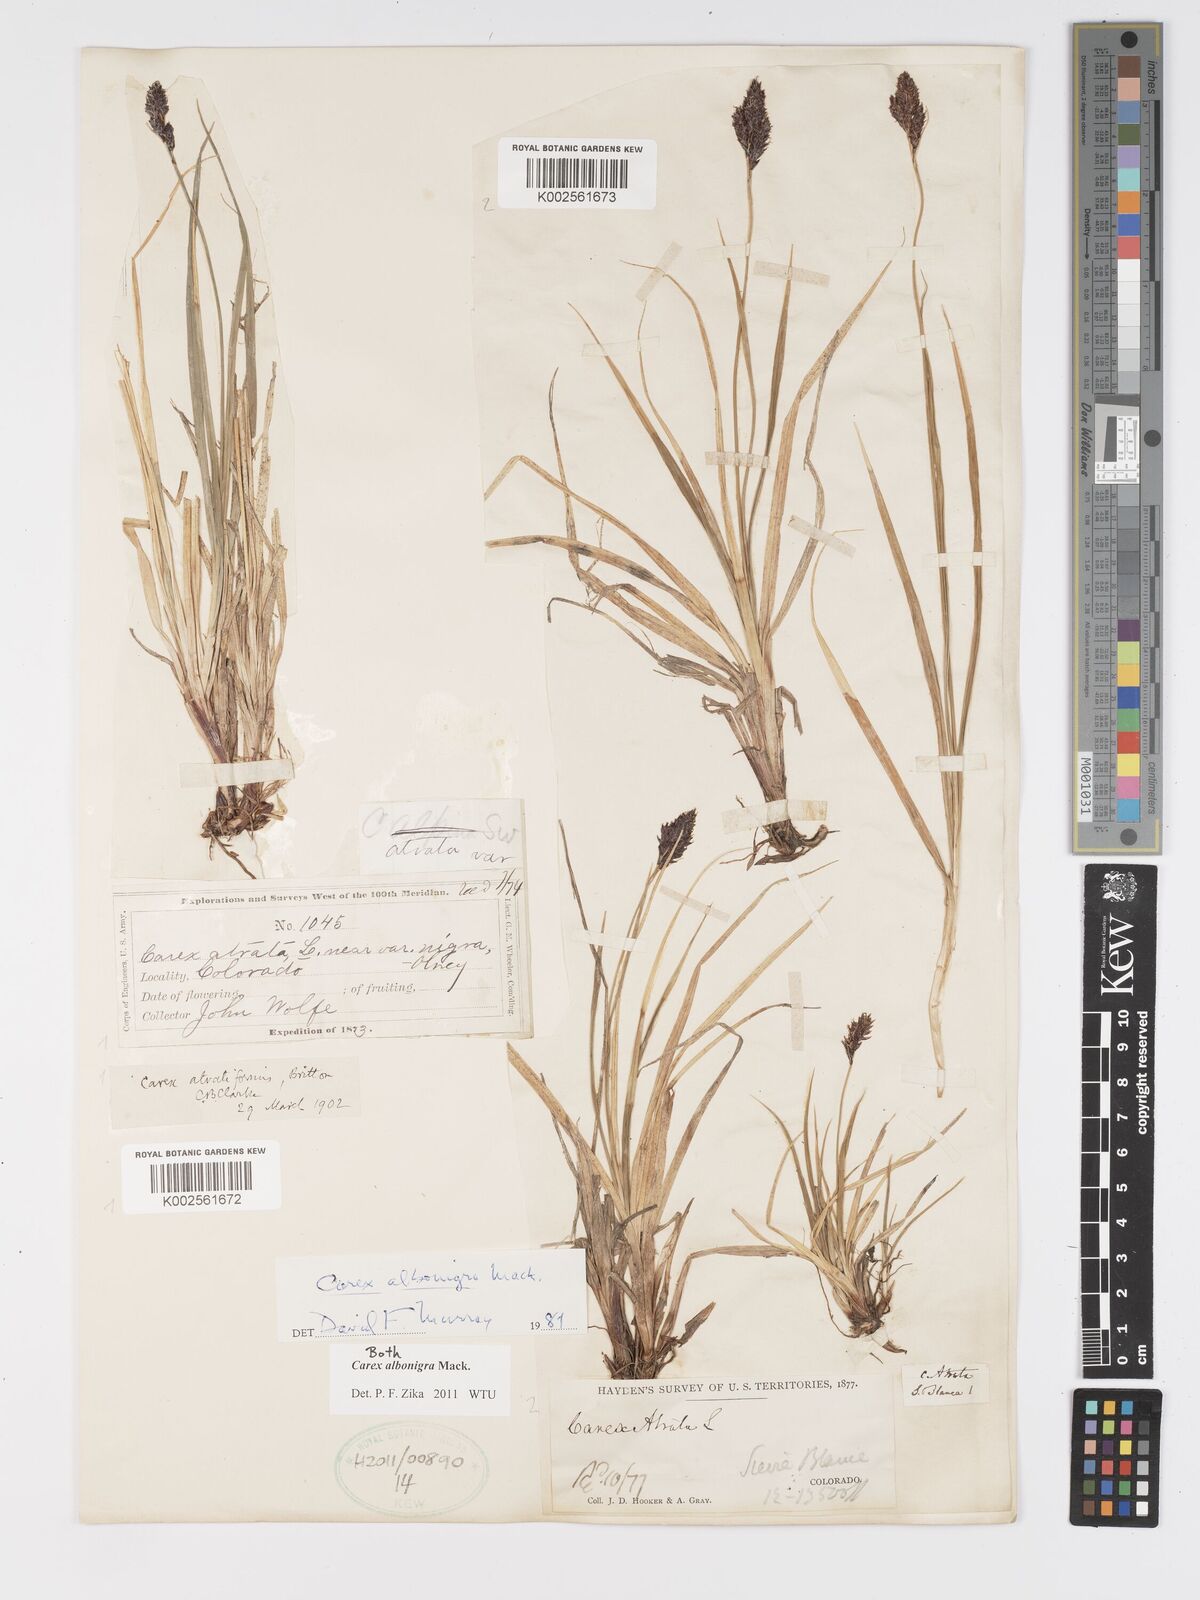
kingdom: Plantae
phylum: Tracheophyta
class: Liliopsida
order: Poales
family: Cyperaceae
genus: Carex
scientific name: Carex albonigra
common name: Black-and-white sedge
